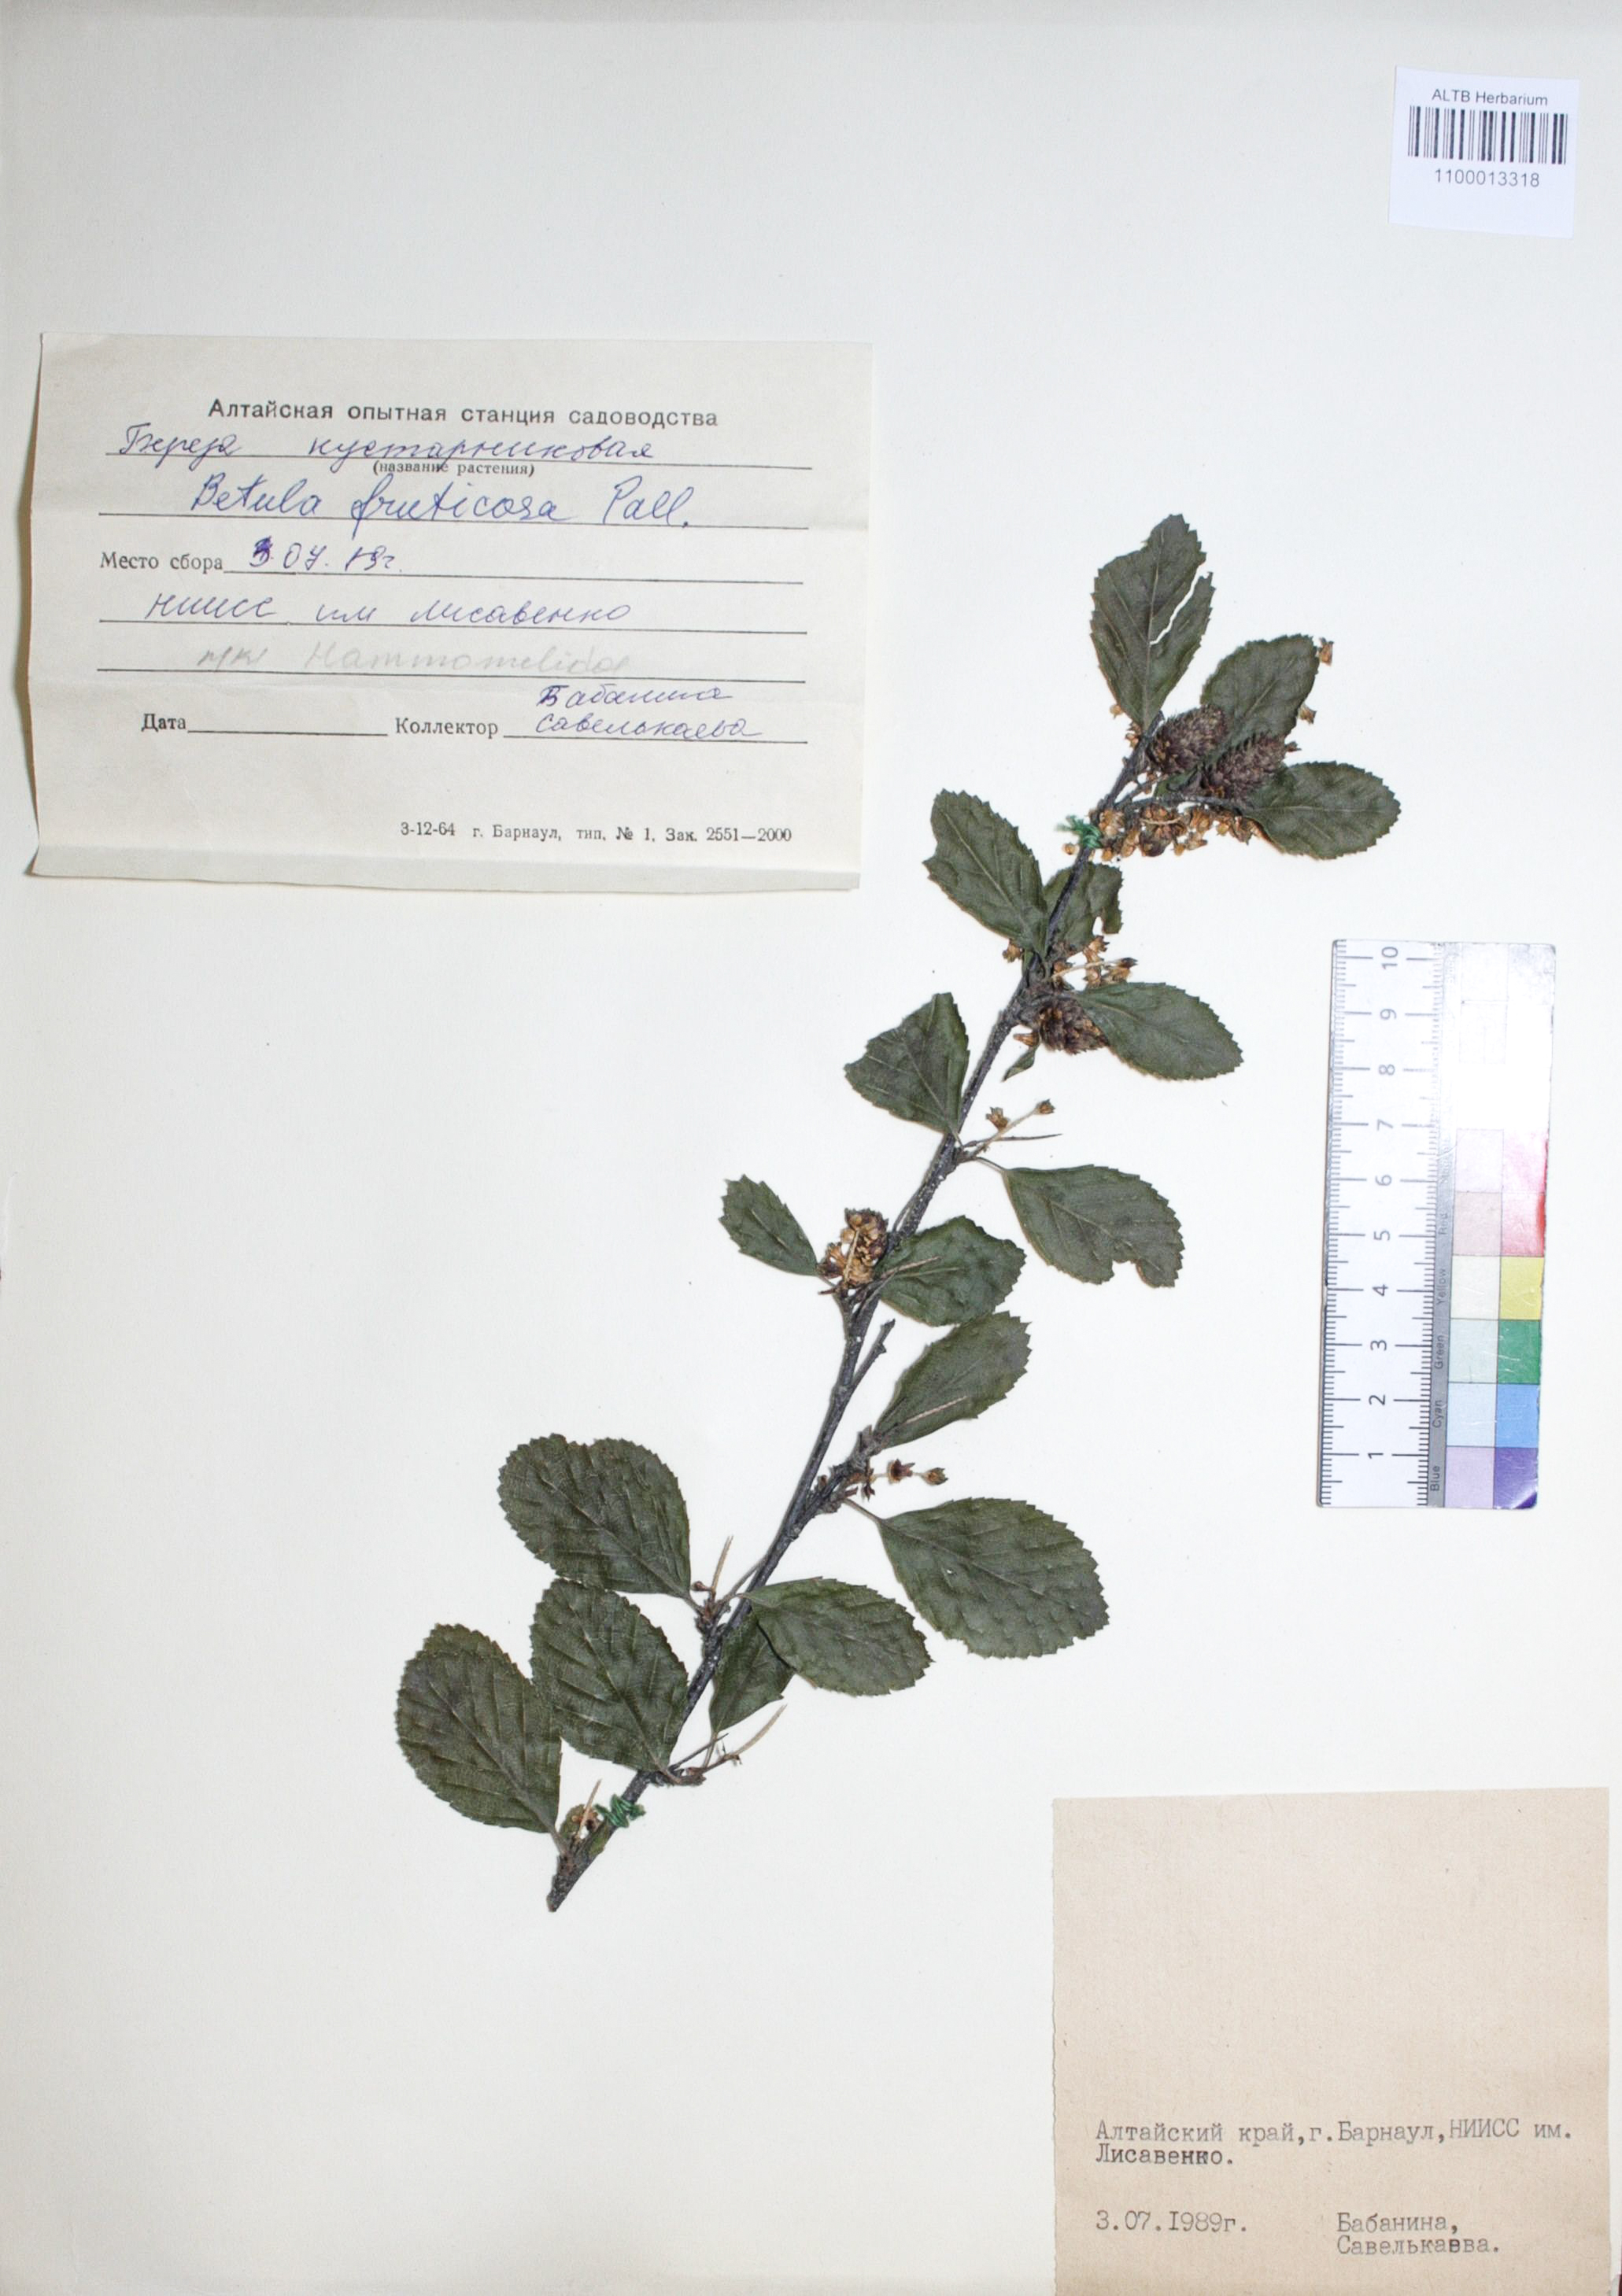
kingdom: Plantae
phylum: Tracheophyta
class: Magnoliopsida
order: Fagales
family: Betulaceae
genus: Betula
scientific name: Betula fruticosa
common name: Japanese bog birch
